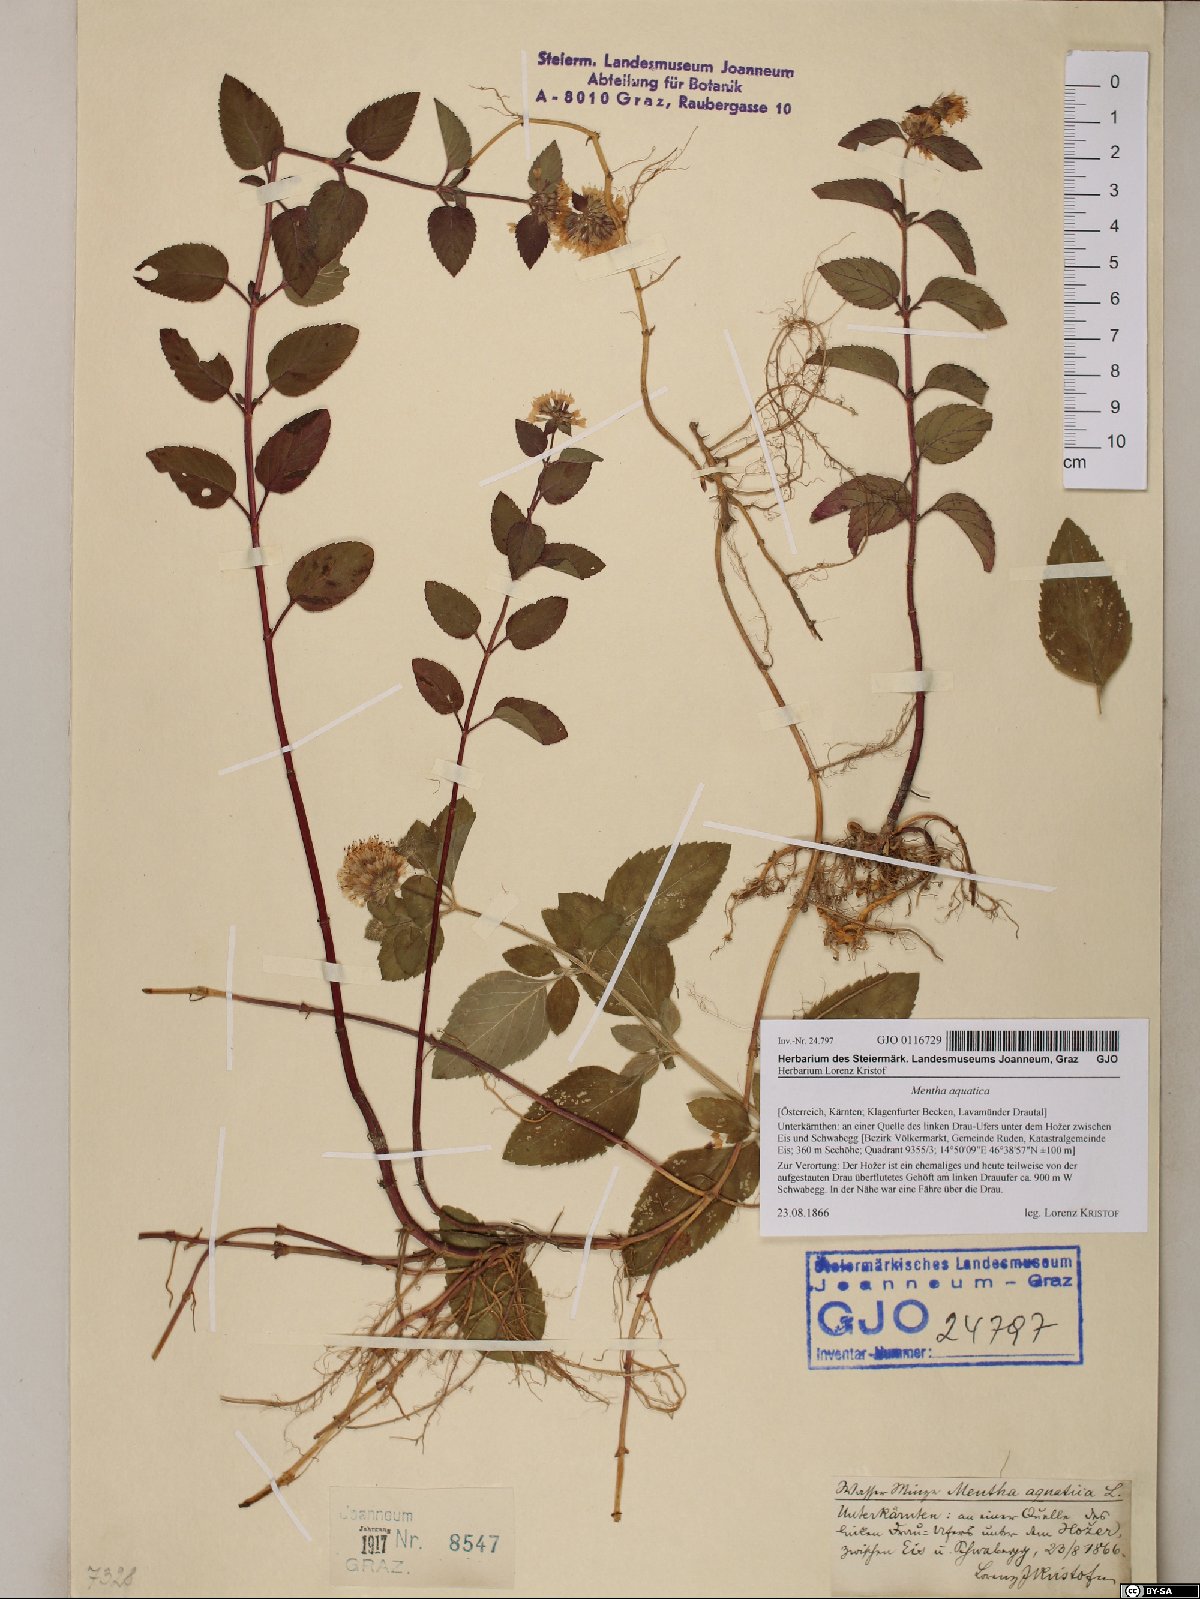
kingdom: Plantae
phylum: Tracheophyta
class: Magnoliopsida
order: Lamiales
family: Lamiaceae
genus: Mentha
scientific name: Mentha aquatica
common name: Water mint
